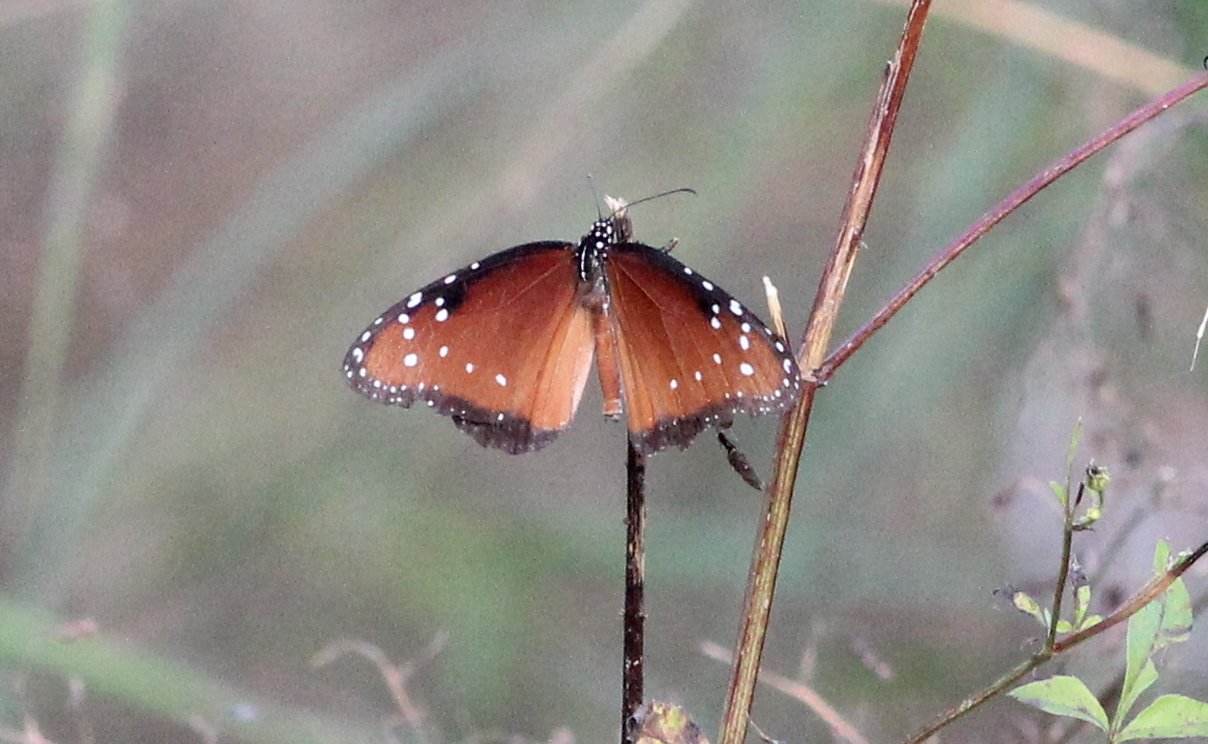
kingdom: Animalia
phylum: Arthropoda
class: Insecta
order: Lepidoptera
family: Nymphalidae
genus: Danaus
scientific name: Danaus gilippus
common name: Queen
